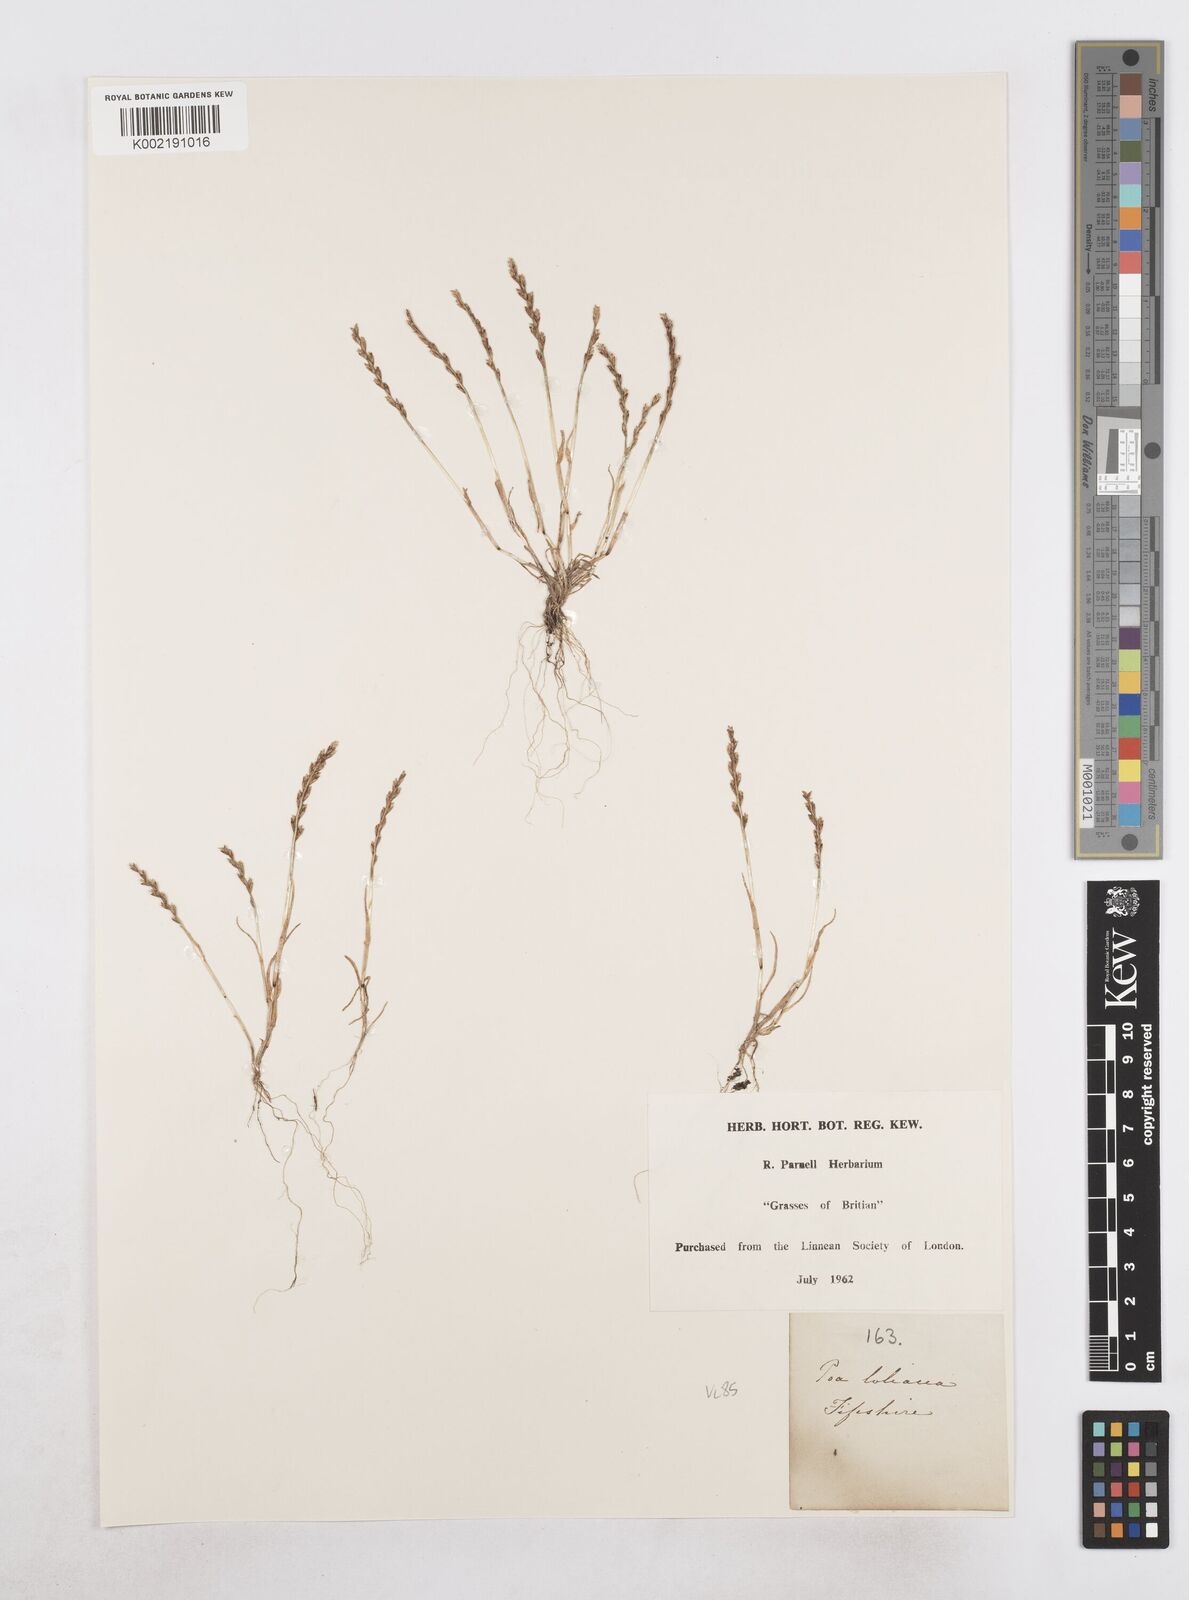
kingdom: Plantae
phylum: Tracheophyta
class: Liliopsida
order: Poales
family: Poaceae
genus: Catapodium
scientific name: Catapodium marinum
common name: Sea fern-grass
